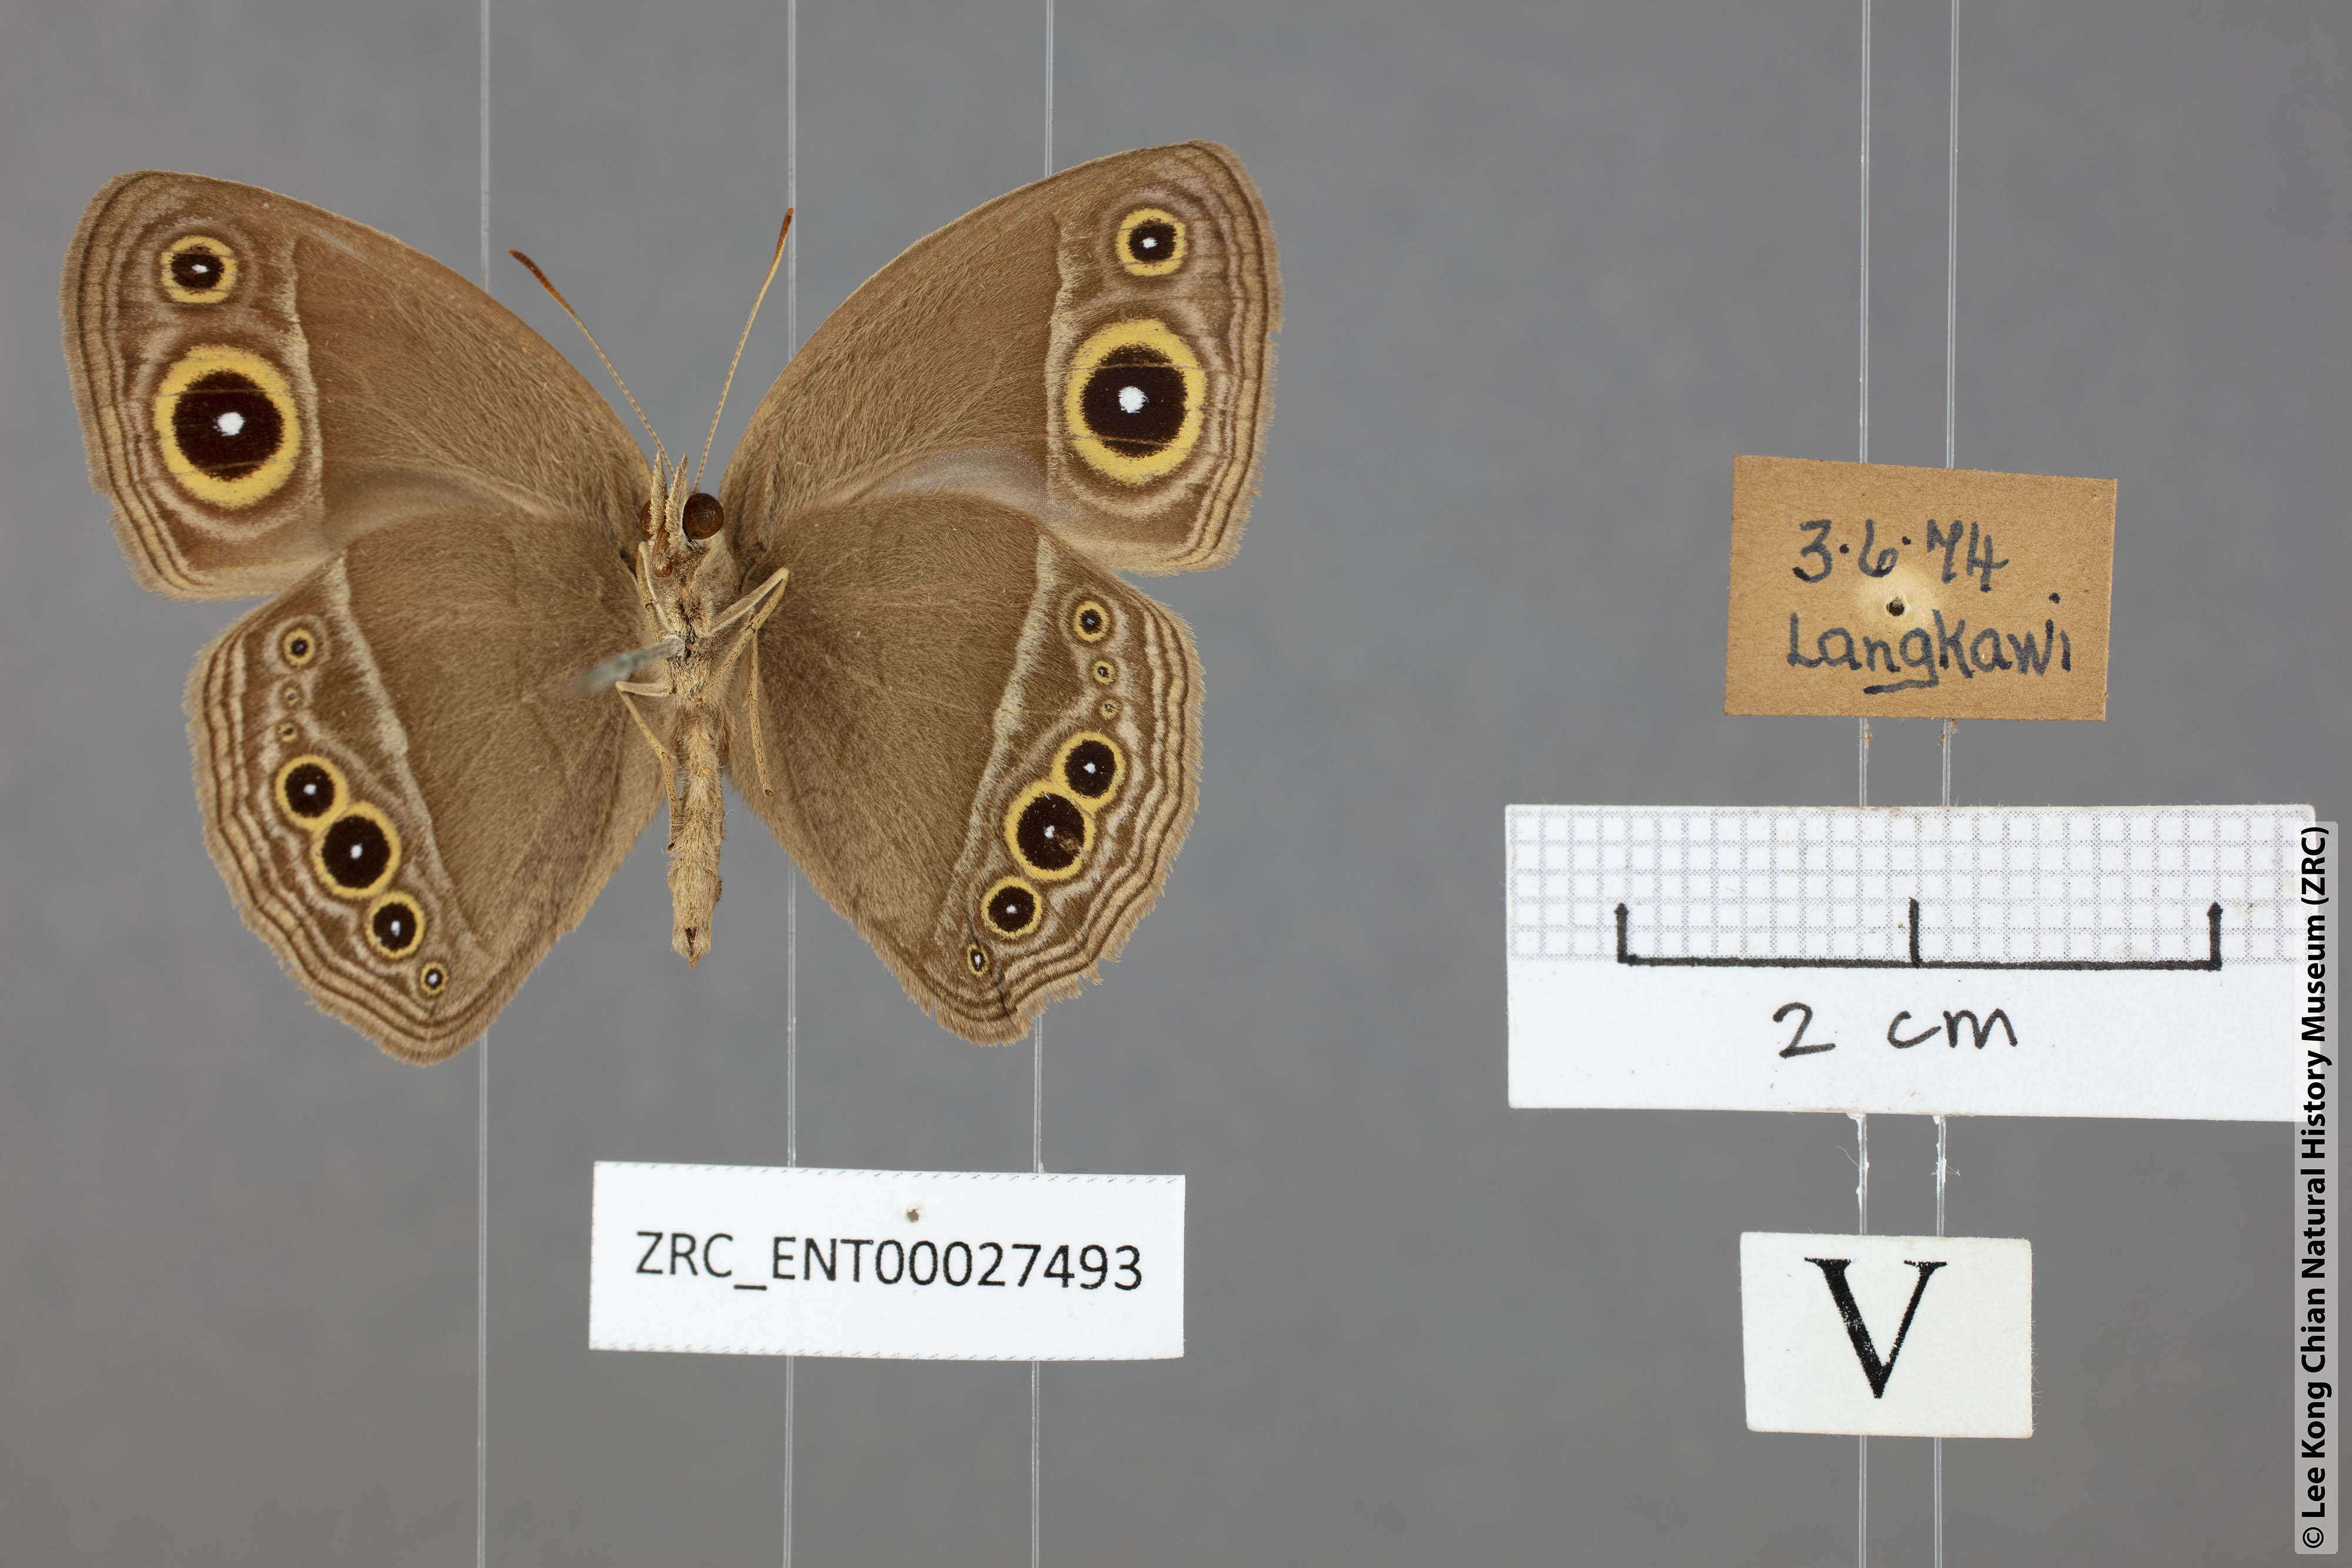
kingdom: Animalia
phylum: Arthropoda
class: Insecta
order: Lepidoptera
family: Nymphalidae
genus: Mycalesis
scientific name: Mycalesis perseoides
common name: Burmese bushbrown
